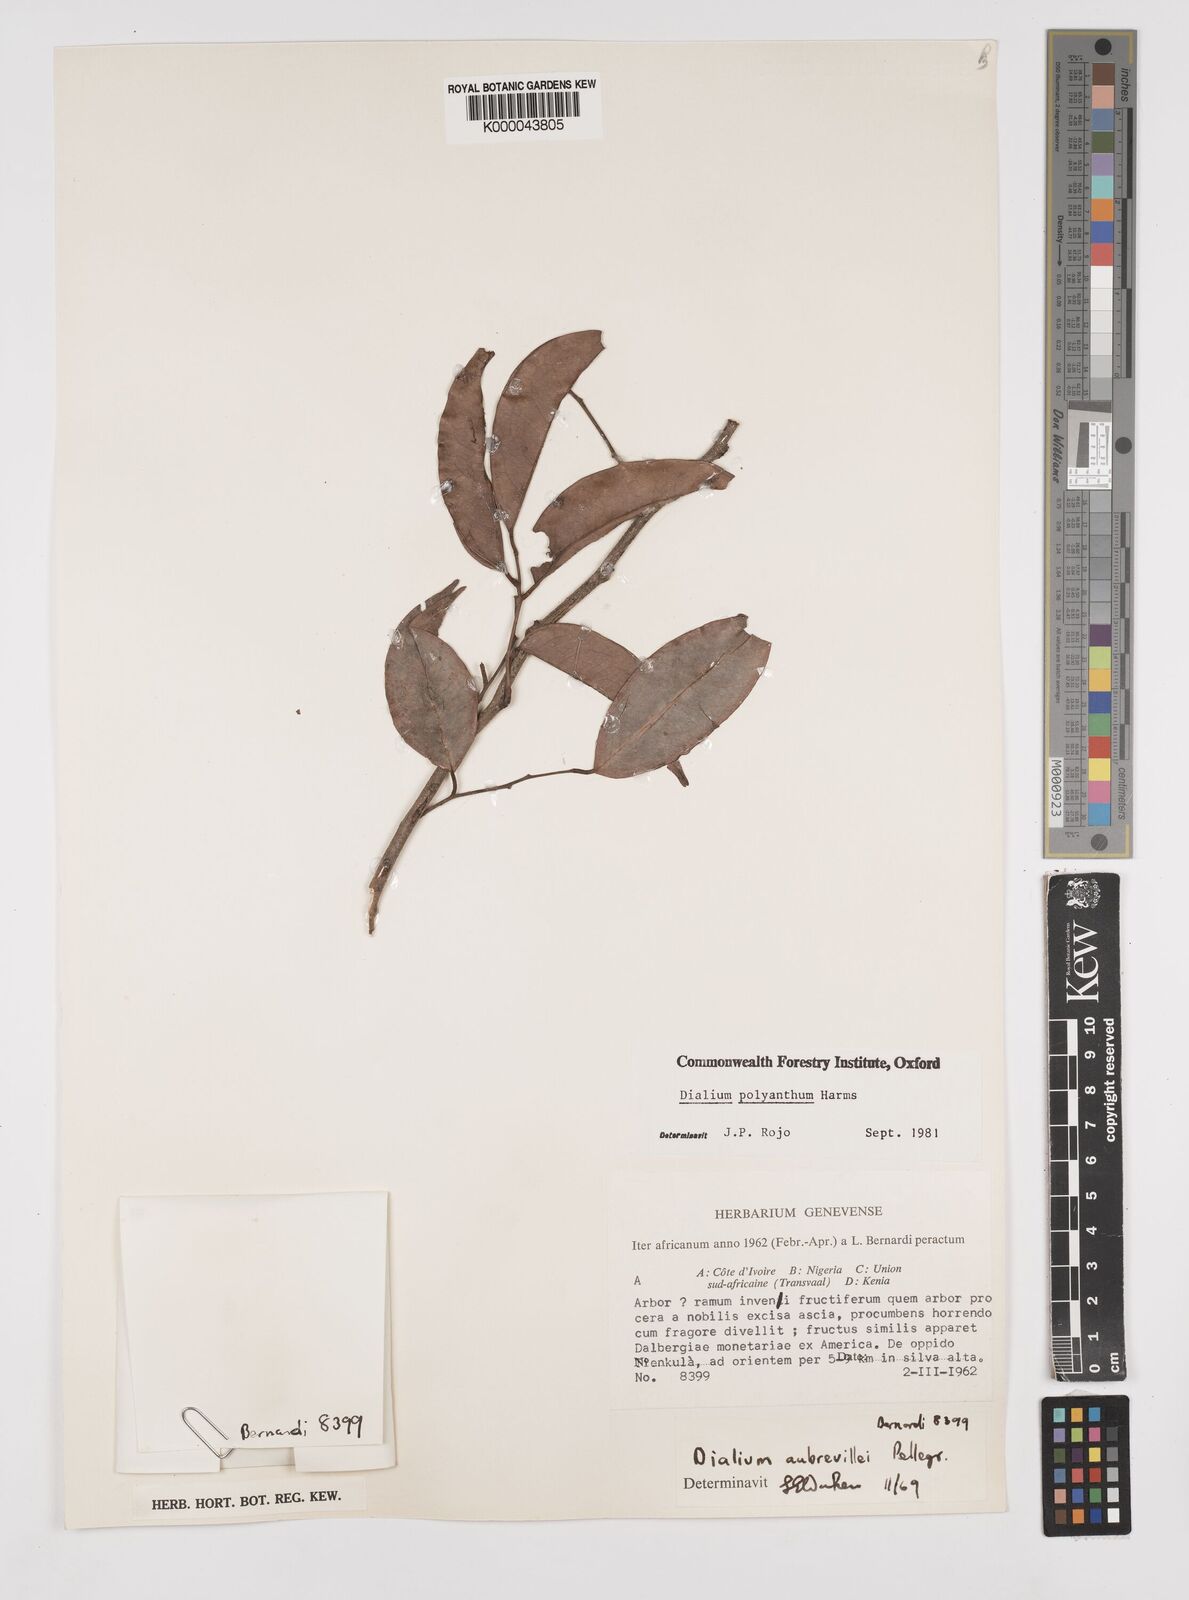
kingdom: Plantae
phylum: Tracheophyta
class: Magnoliopsida
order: Fabales
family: Fabaceae
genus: Dialium
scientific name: Dialium polyanthum
